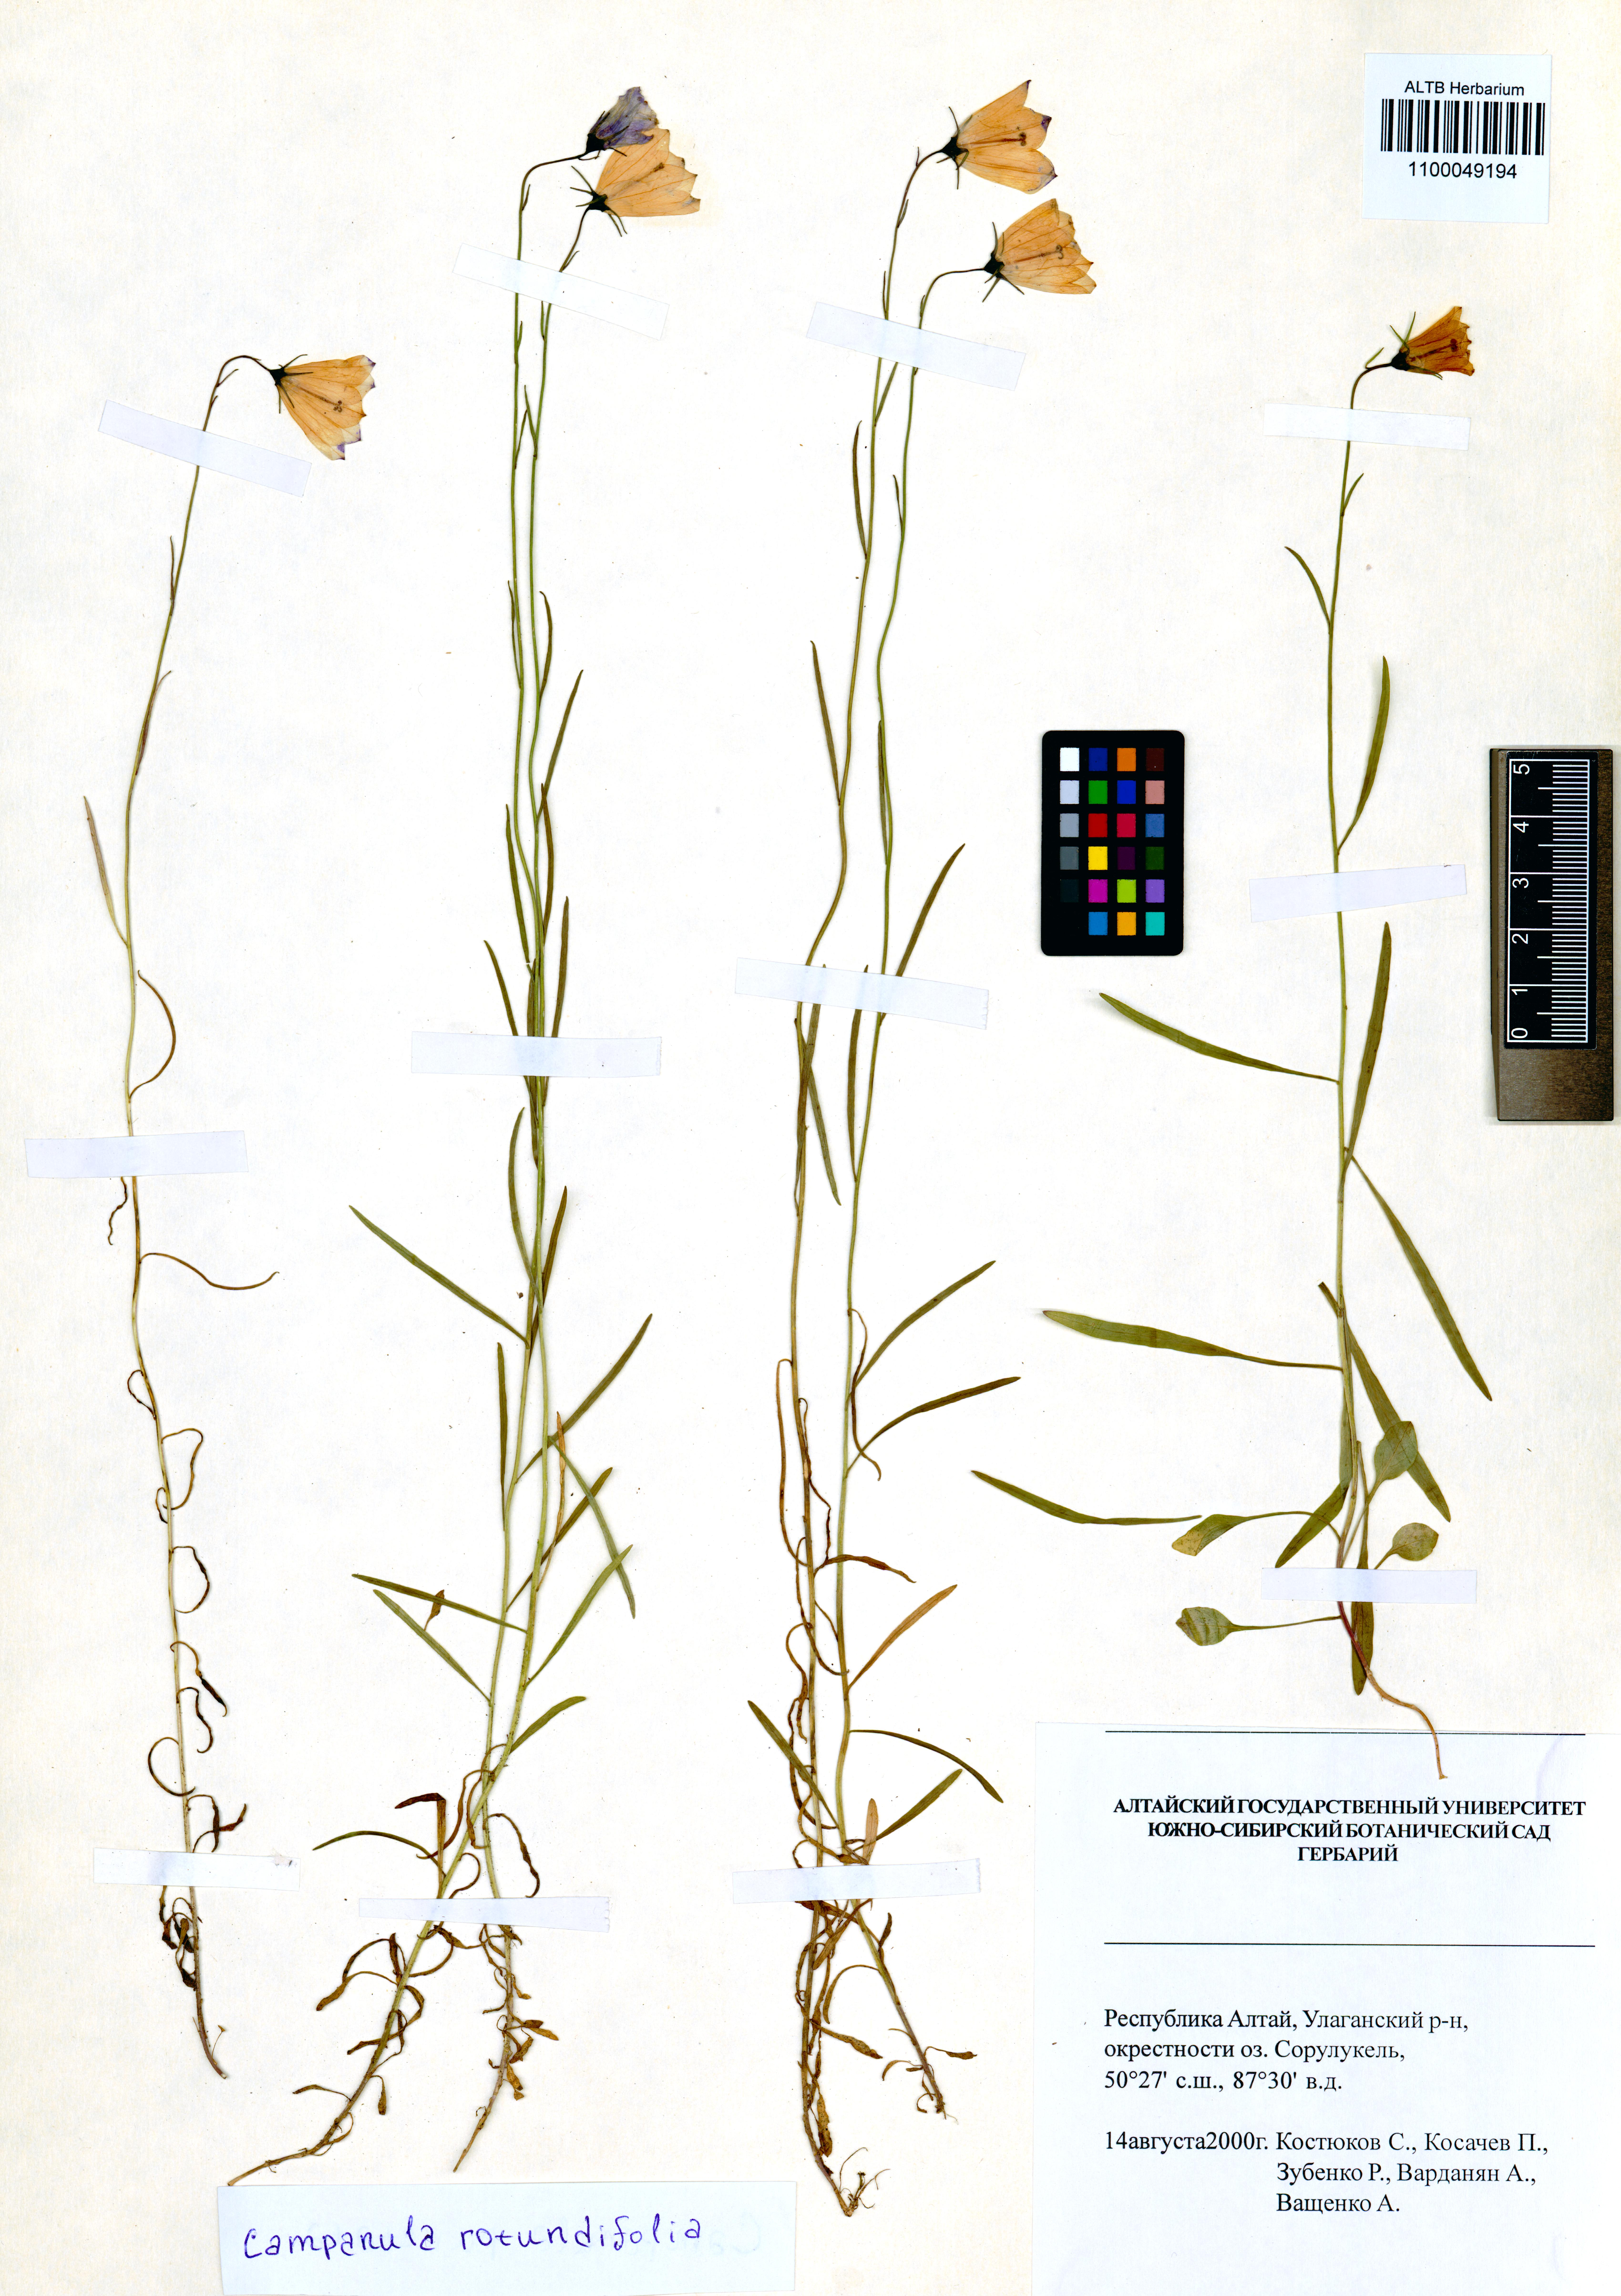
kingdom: Plantae
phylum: Tracheophyta
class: Magnoliopsida
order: Asterales
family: Campanulaceae
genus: Campanula
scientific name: Campanula rotundifolia
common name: Harebell
